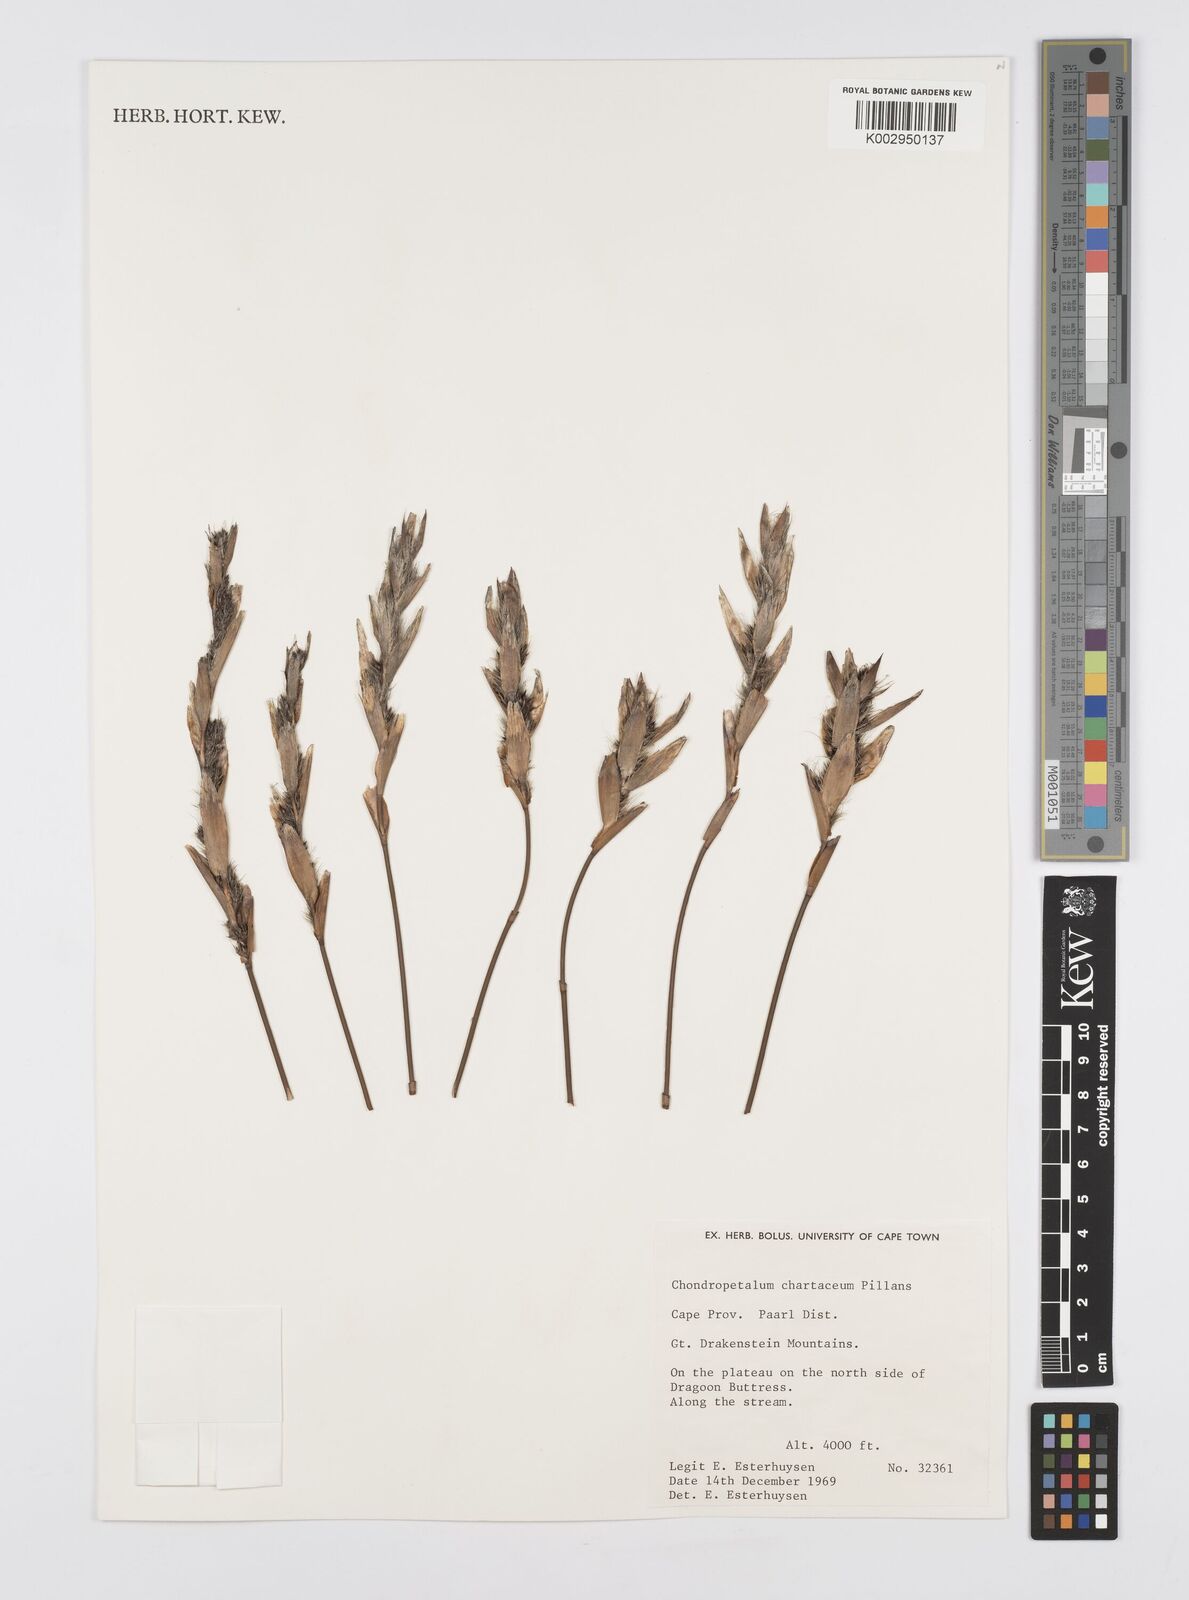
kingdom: Plantae
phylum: Tracheophyta
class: Liliopsida
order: Poales
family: Restionaceae
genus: Askidiosperma
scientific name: Askidiosperma chartaceum
